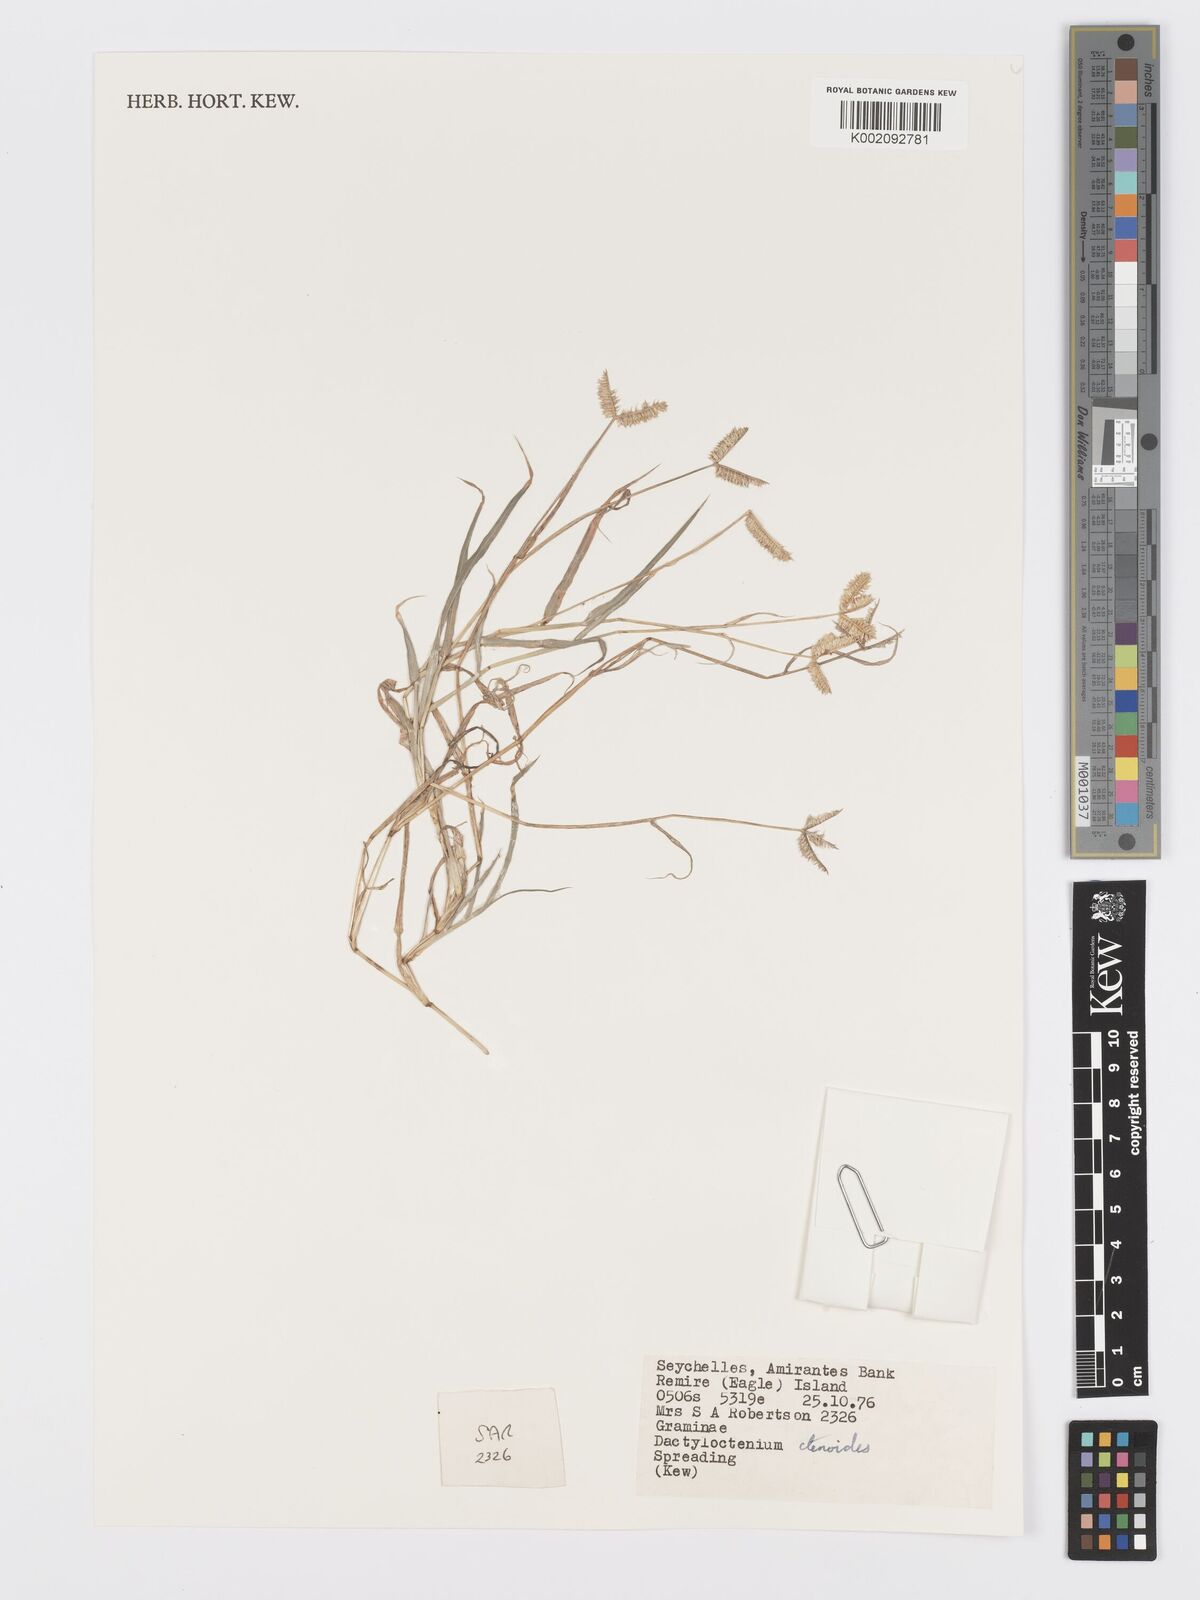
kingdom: Plantae
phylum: Tracheophyta
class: Liliopsida
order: Poales
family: Poaceae
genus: Dactyloctenium
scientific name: Dactyloctenium ctenoides
